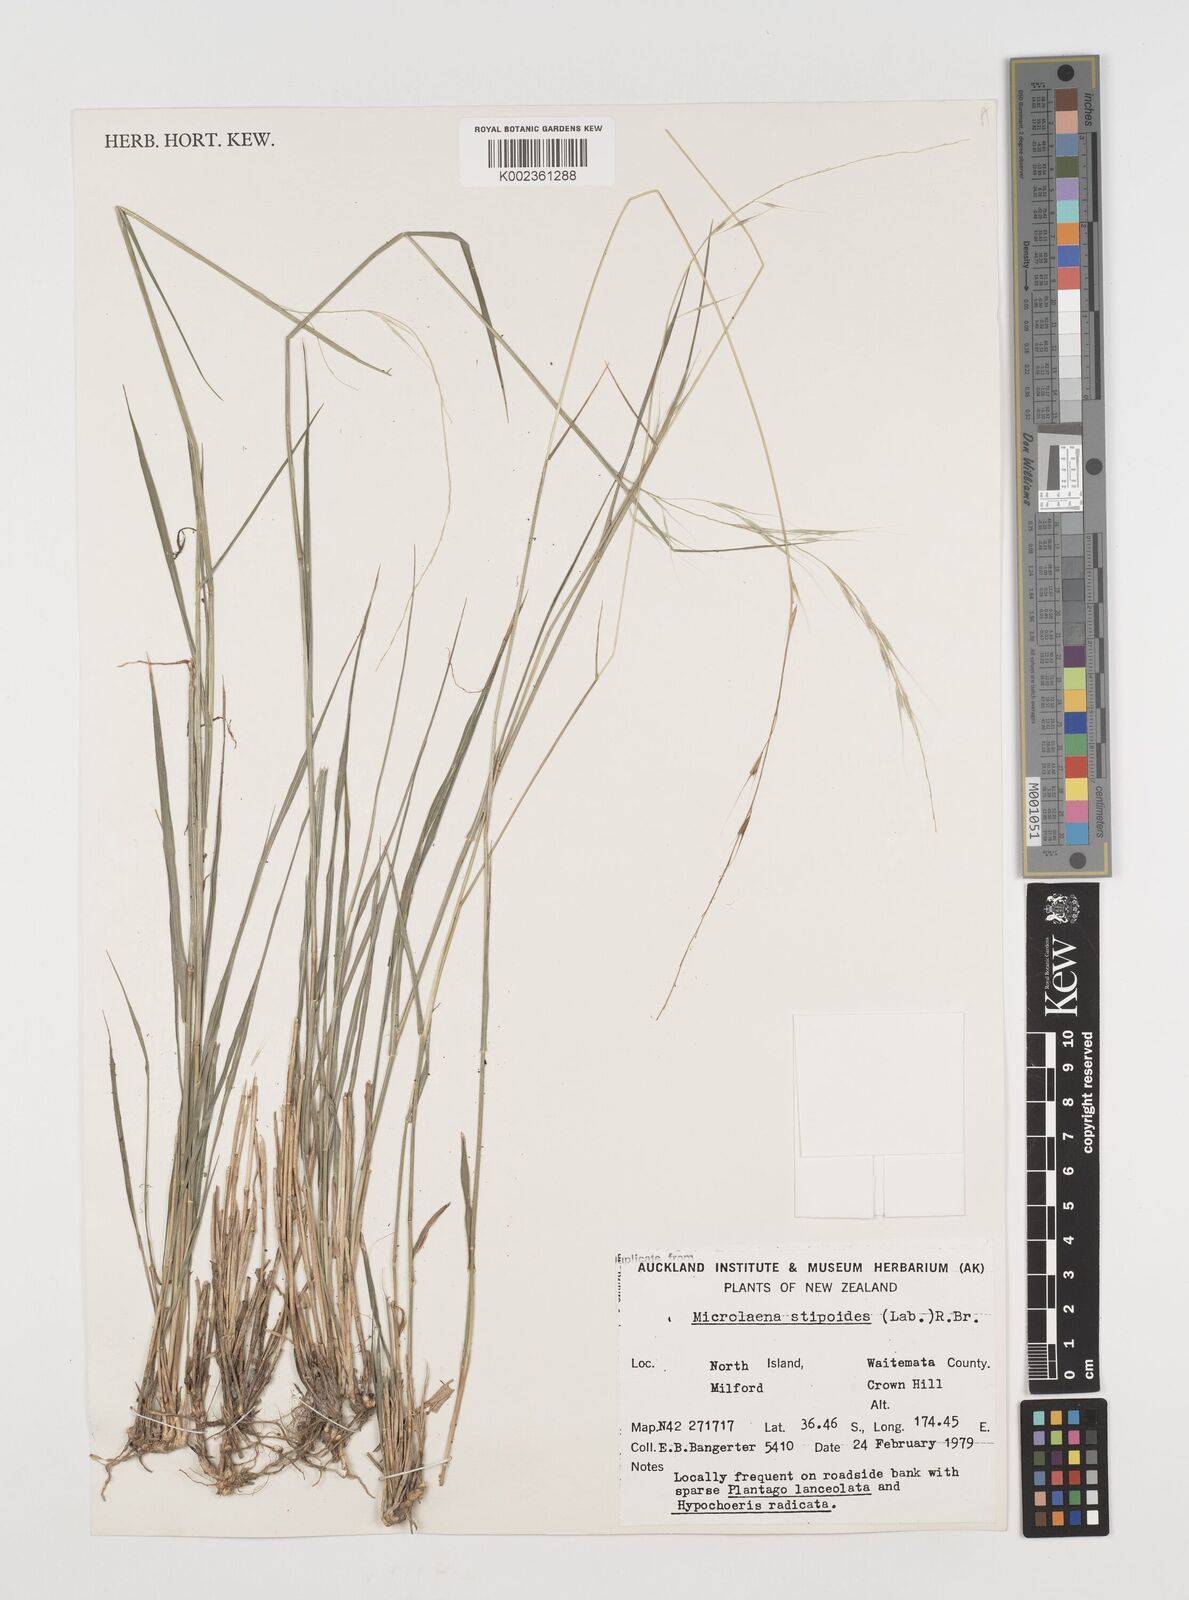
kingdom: Plantae
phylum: Tracheophyta
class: Liliopsida
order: Poales
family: Poaceae
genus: Microlaena
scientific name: Microlaena stipoides
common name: Meadow ricegrass
